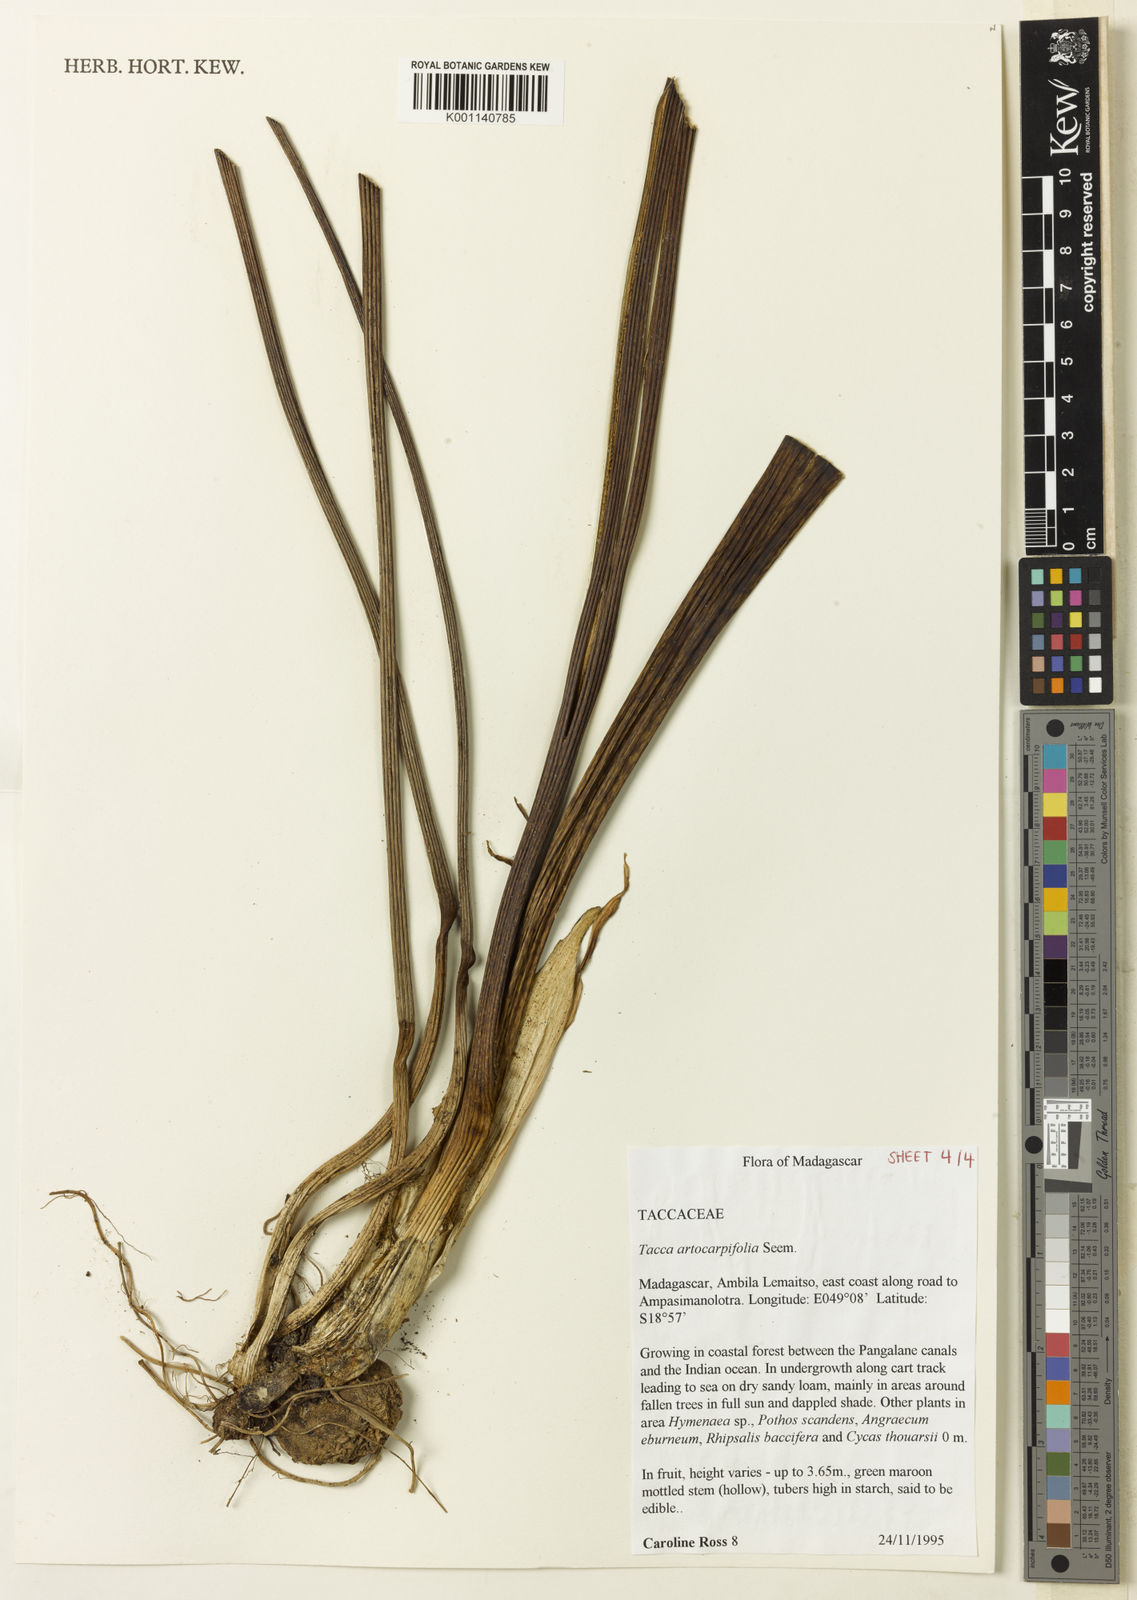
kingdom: Plantae
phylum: Tracheophyta
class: Liliopsida
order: Dioscoreales
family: Dioscoreaceae
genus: Tacca
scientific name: Tacca leontopetaloides
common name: Arrowroot
